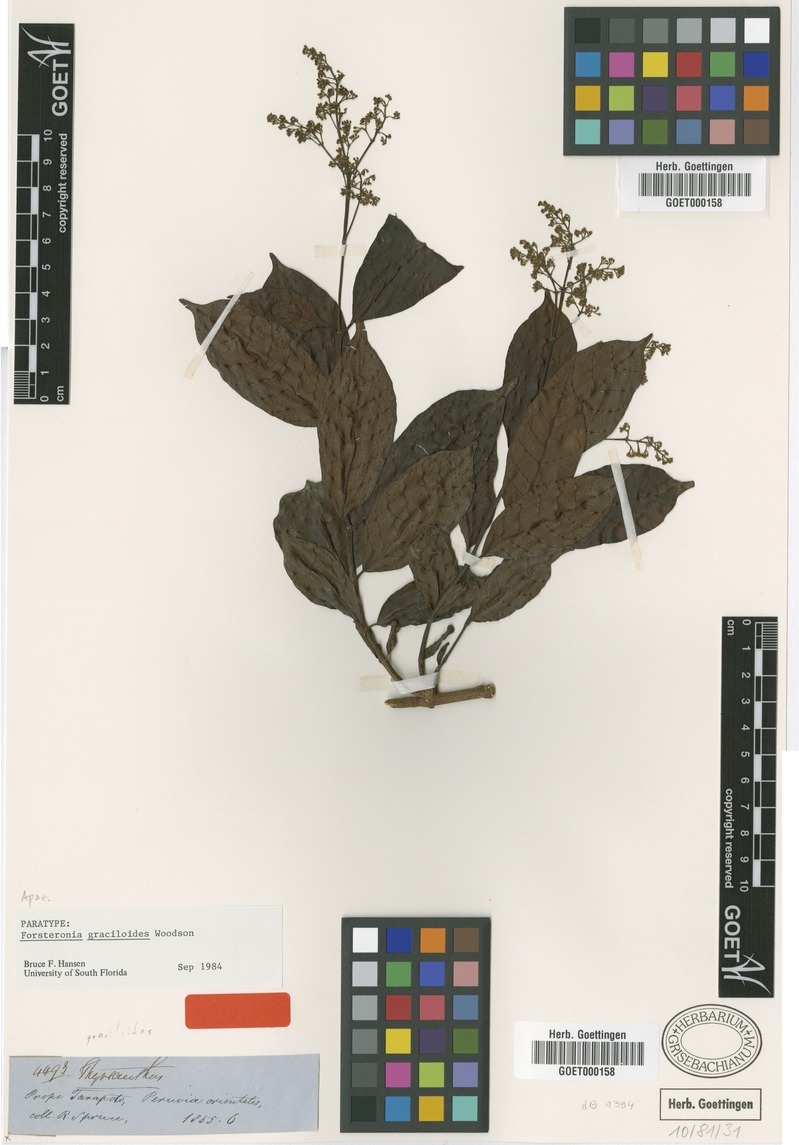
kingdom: Plantae
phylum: Tracheophyta
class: Magnoliopsida
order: Gentianales
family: Apocynaceae
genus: Forsteronia
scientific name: Forsteronia graciloides
